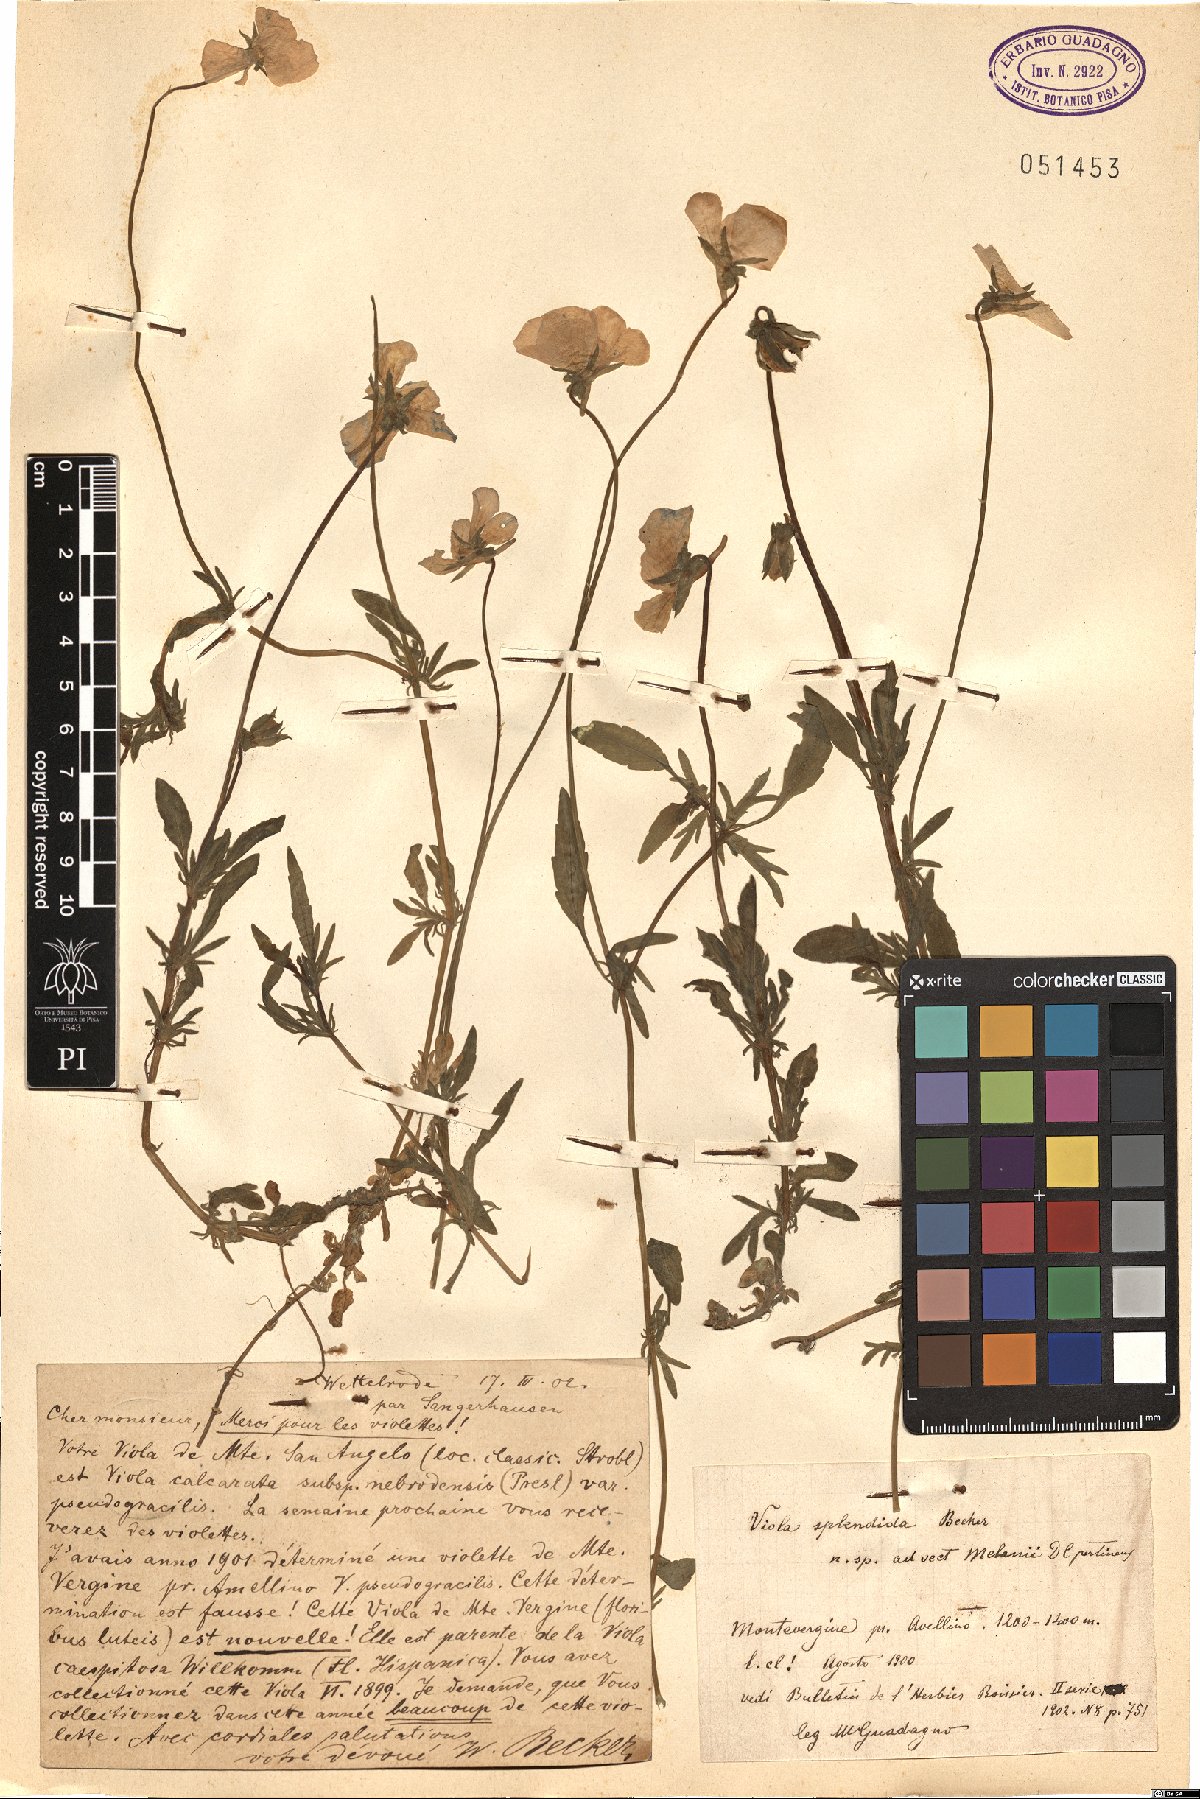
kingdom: Plantae
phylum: Tracheophyta
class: Magnoliopsida
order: Malpighiales
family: Violaceae
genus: Viola
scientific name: Viola aethnensis
